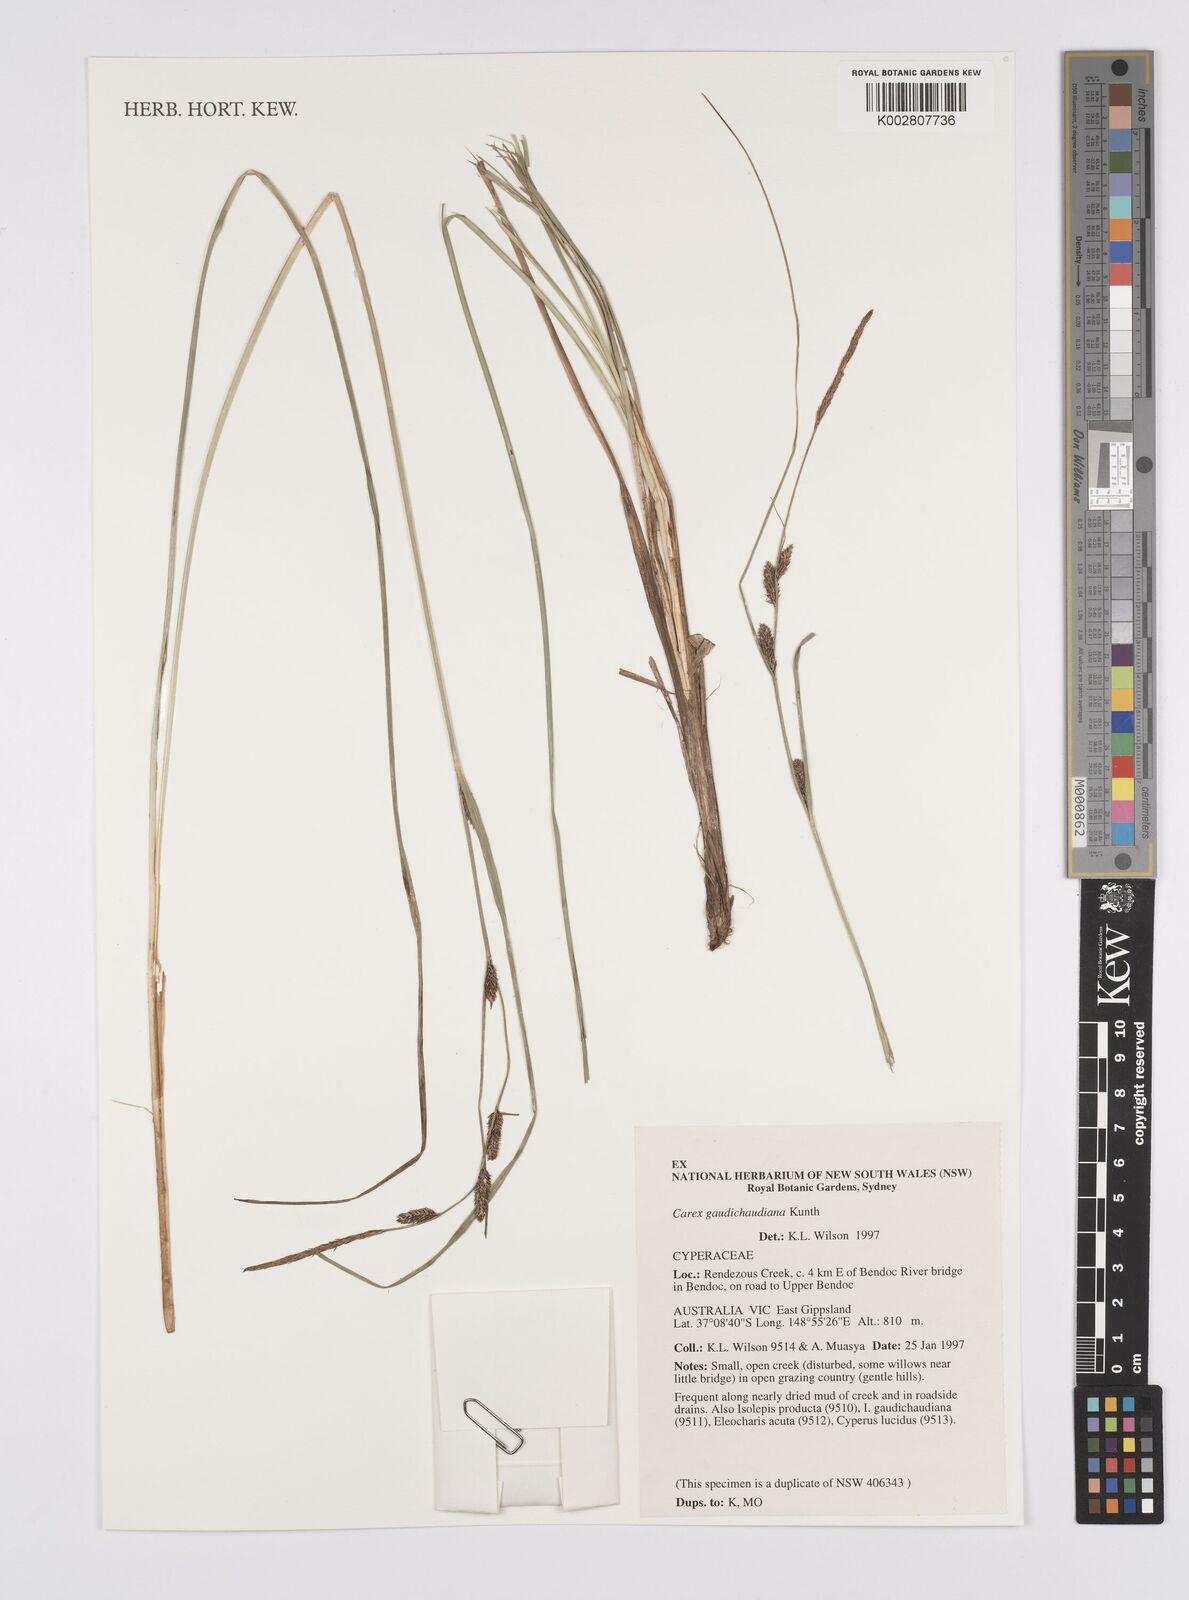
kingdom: Plantae
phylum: Tracheophyta
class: Liliopsida
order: Poales
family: Cyperaceae
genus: Carex
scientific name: Carex gaudichaudiana
